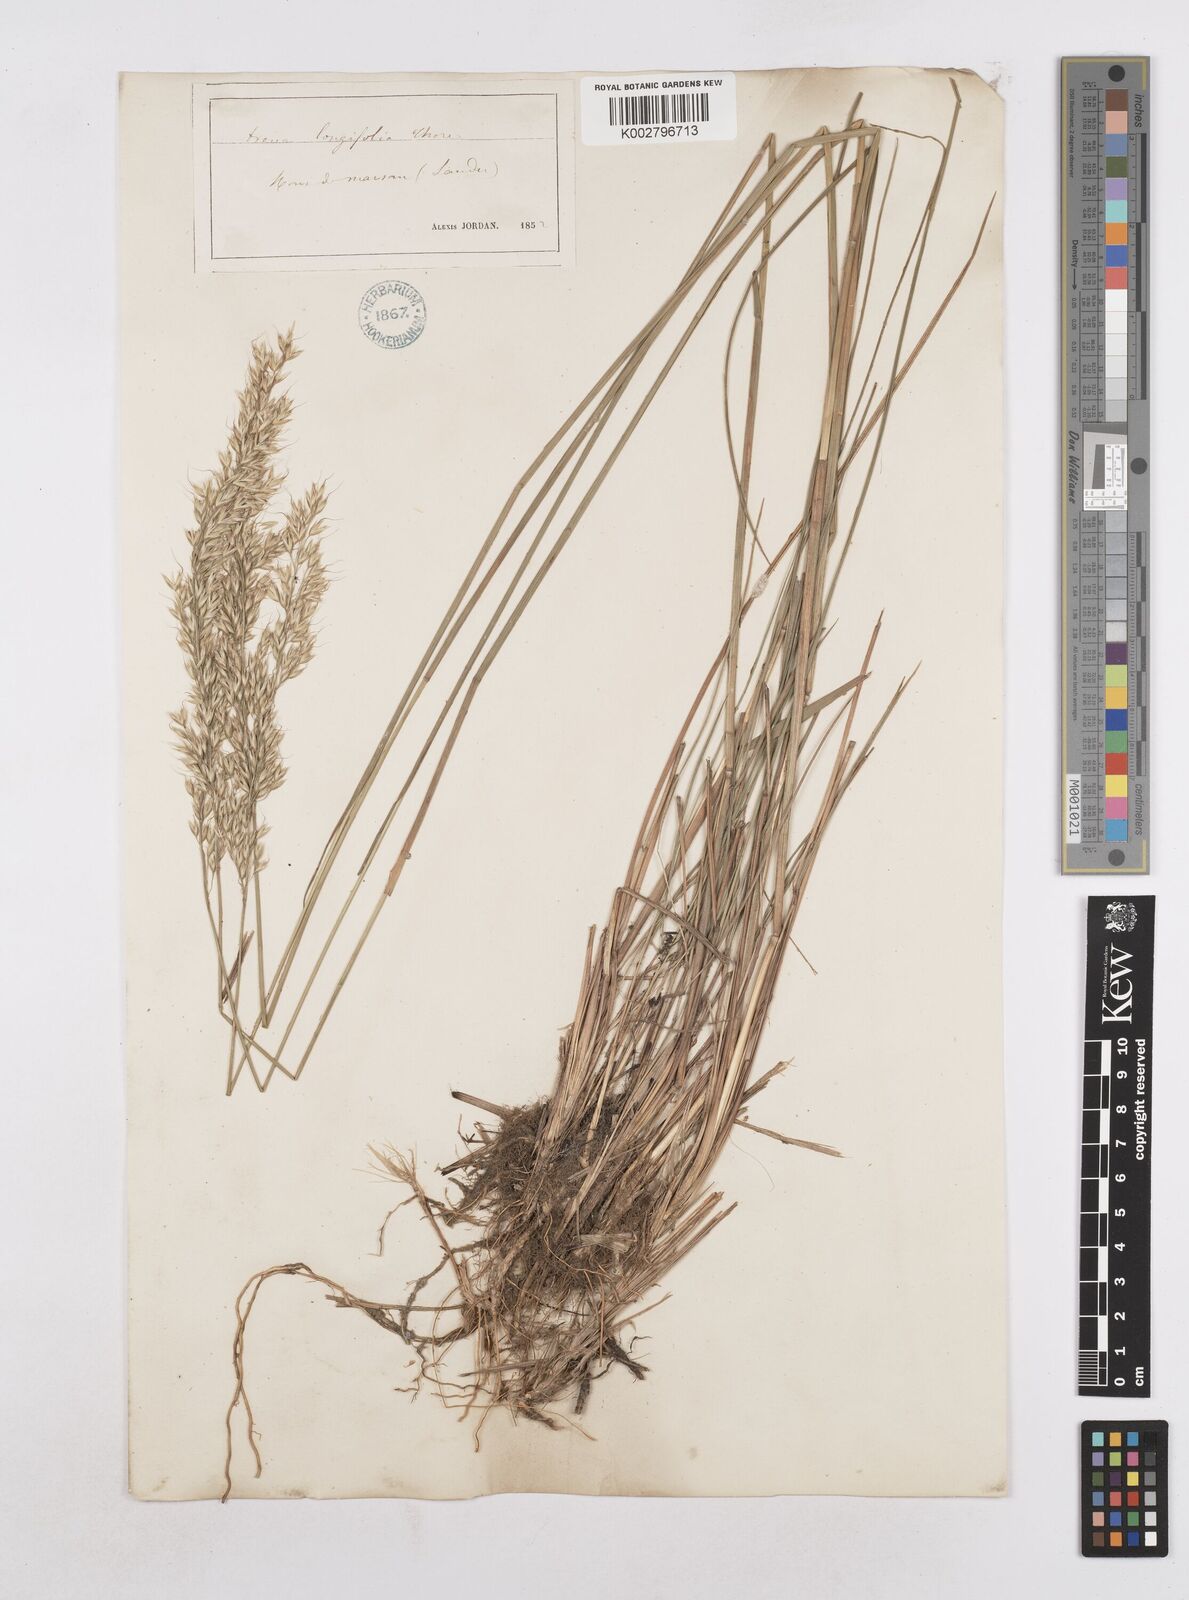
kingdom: Plantae
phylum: Tracheophyta
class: Liliopsida
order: Poales
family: Poaceae
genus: Arrhenatherum
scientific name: Arrhenatherum longifolium
